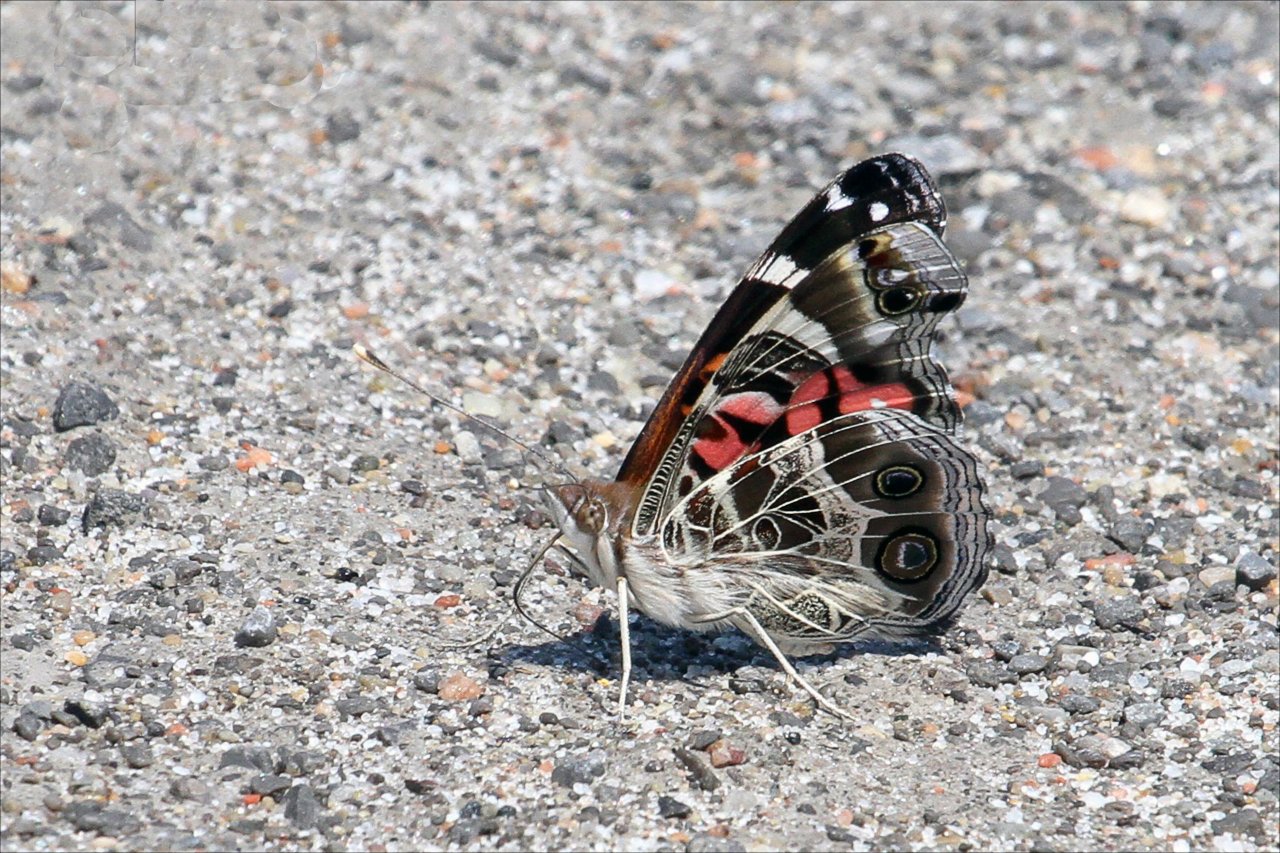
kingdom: Animalia
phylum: Arthropoda
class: Insecta
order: Lepidoptera
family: Nymphalidae
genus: Vanessa
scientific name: Vanessa virginiensis
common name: American Lady
